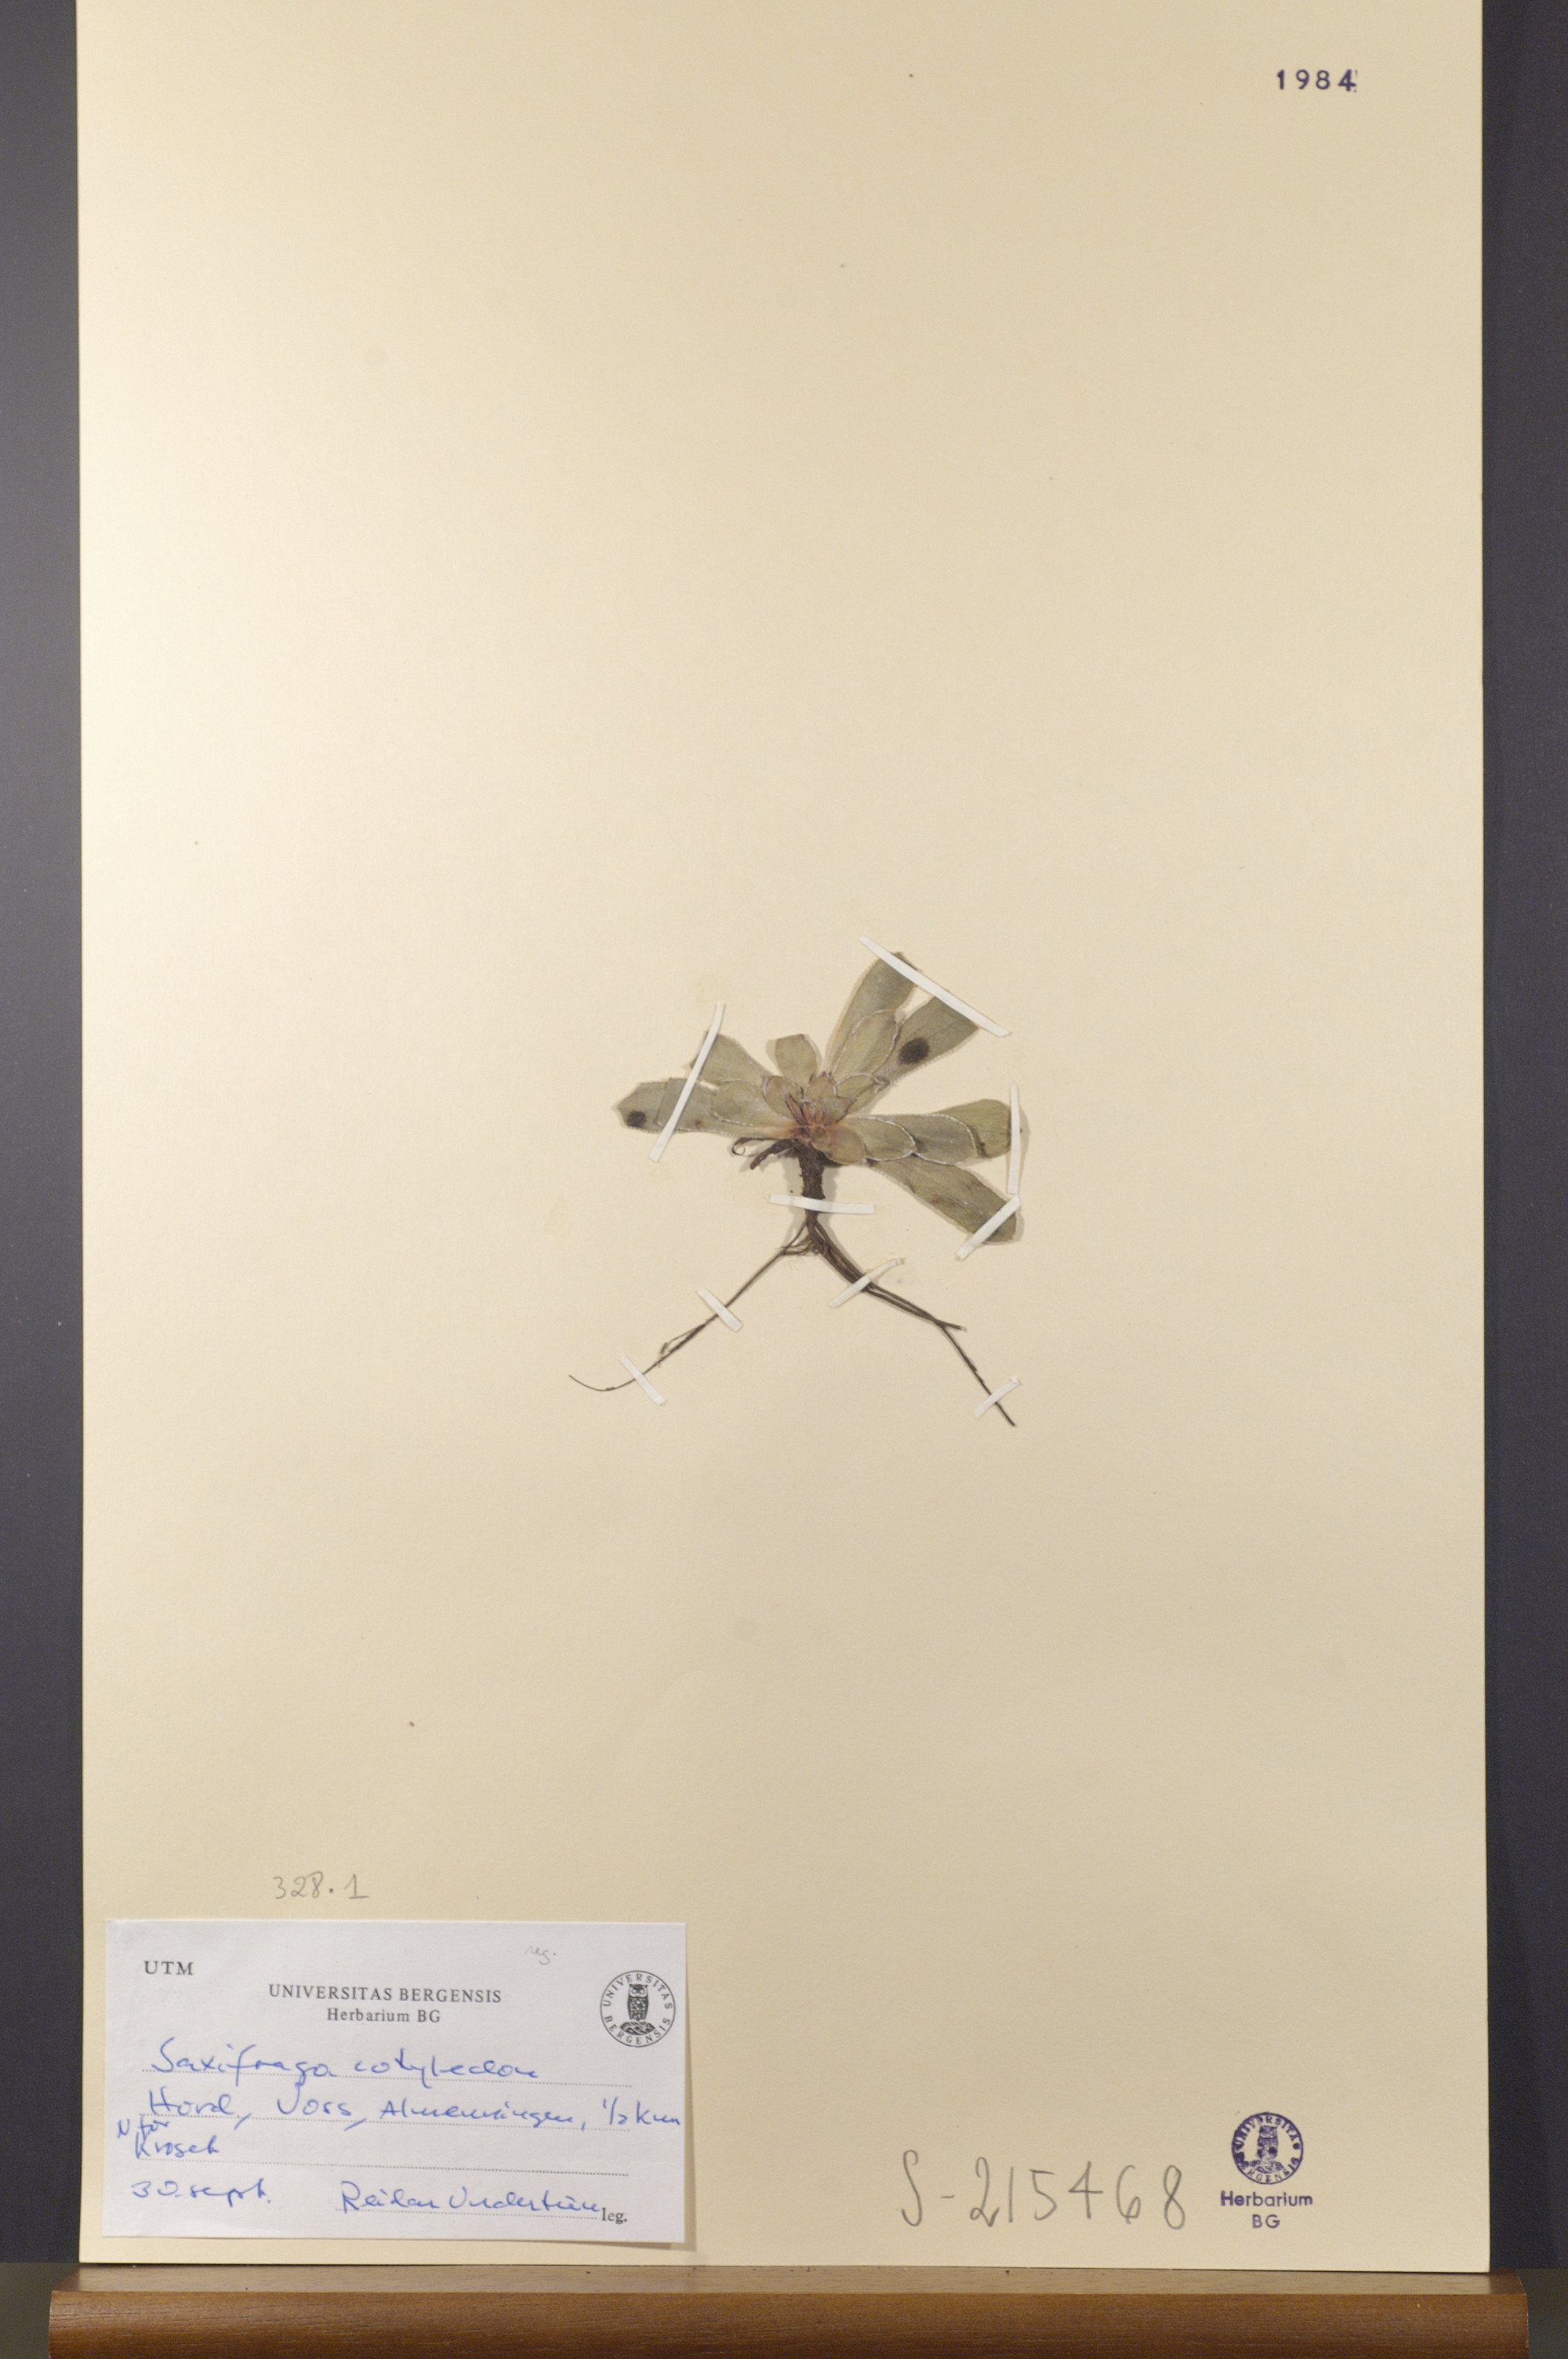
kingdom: Plantae
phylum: Tracheophyta
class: Magnoliopsida
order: Saxifragales
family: Saxifragaceae
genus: Saxifraga
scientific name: Saxifraga cotyledon
